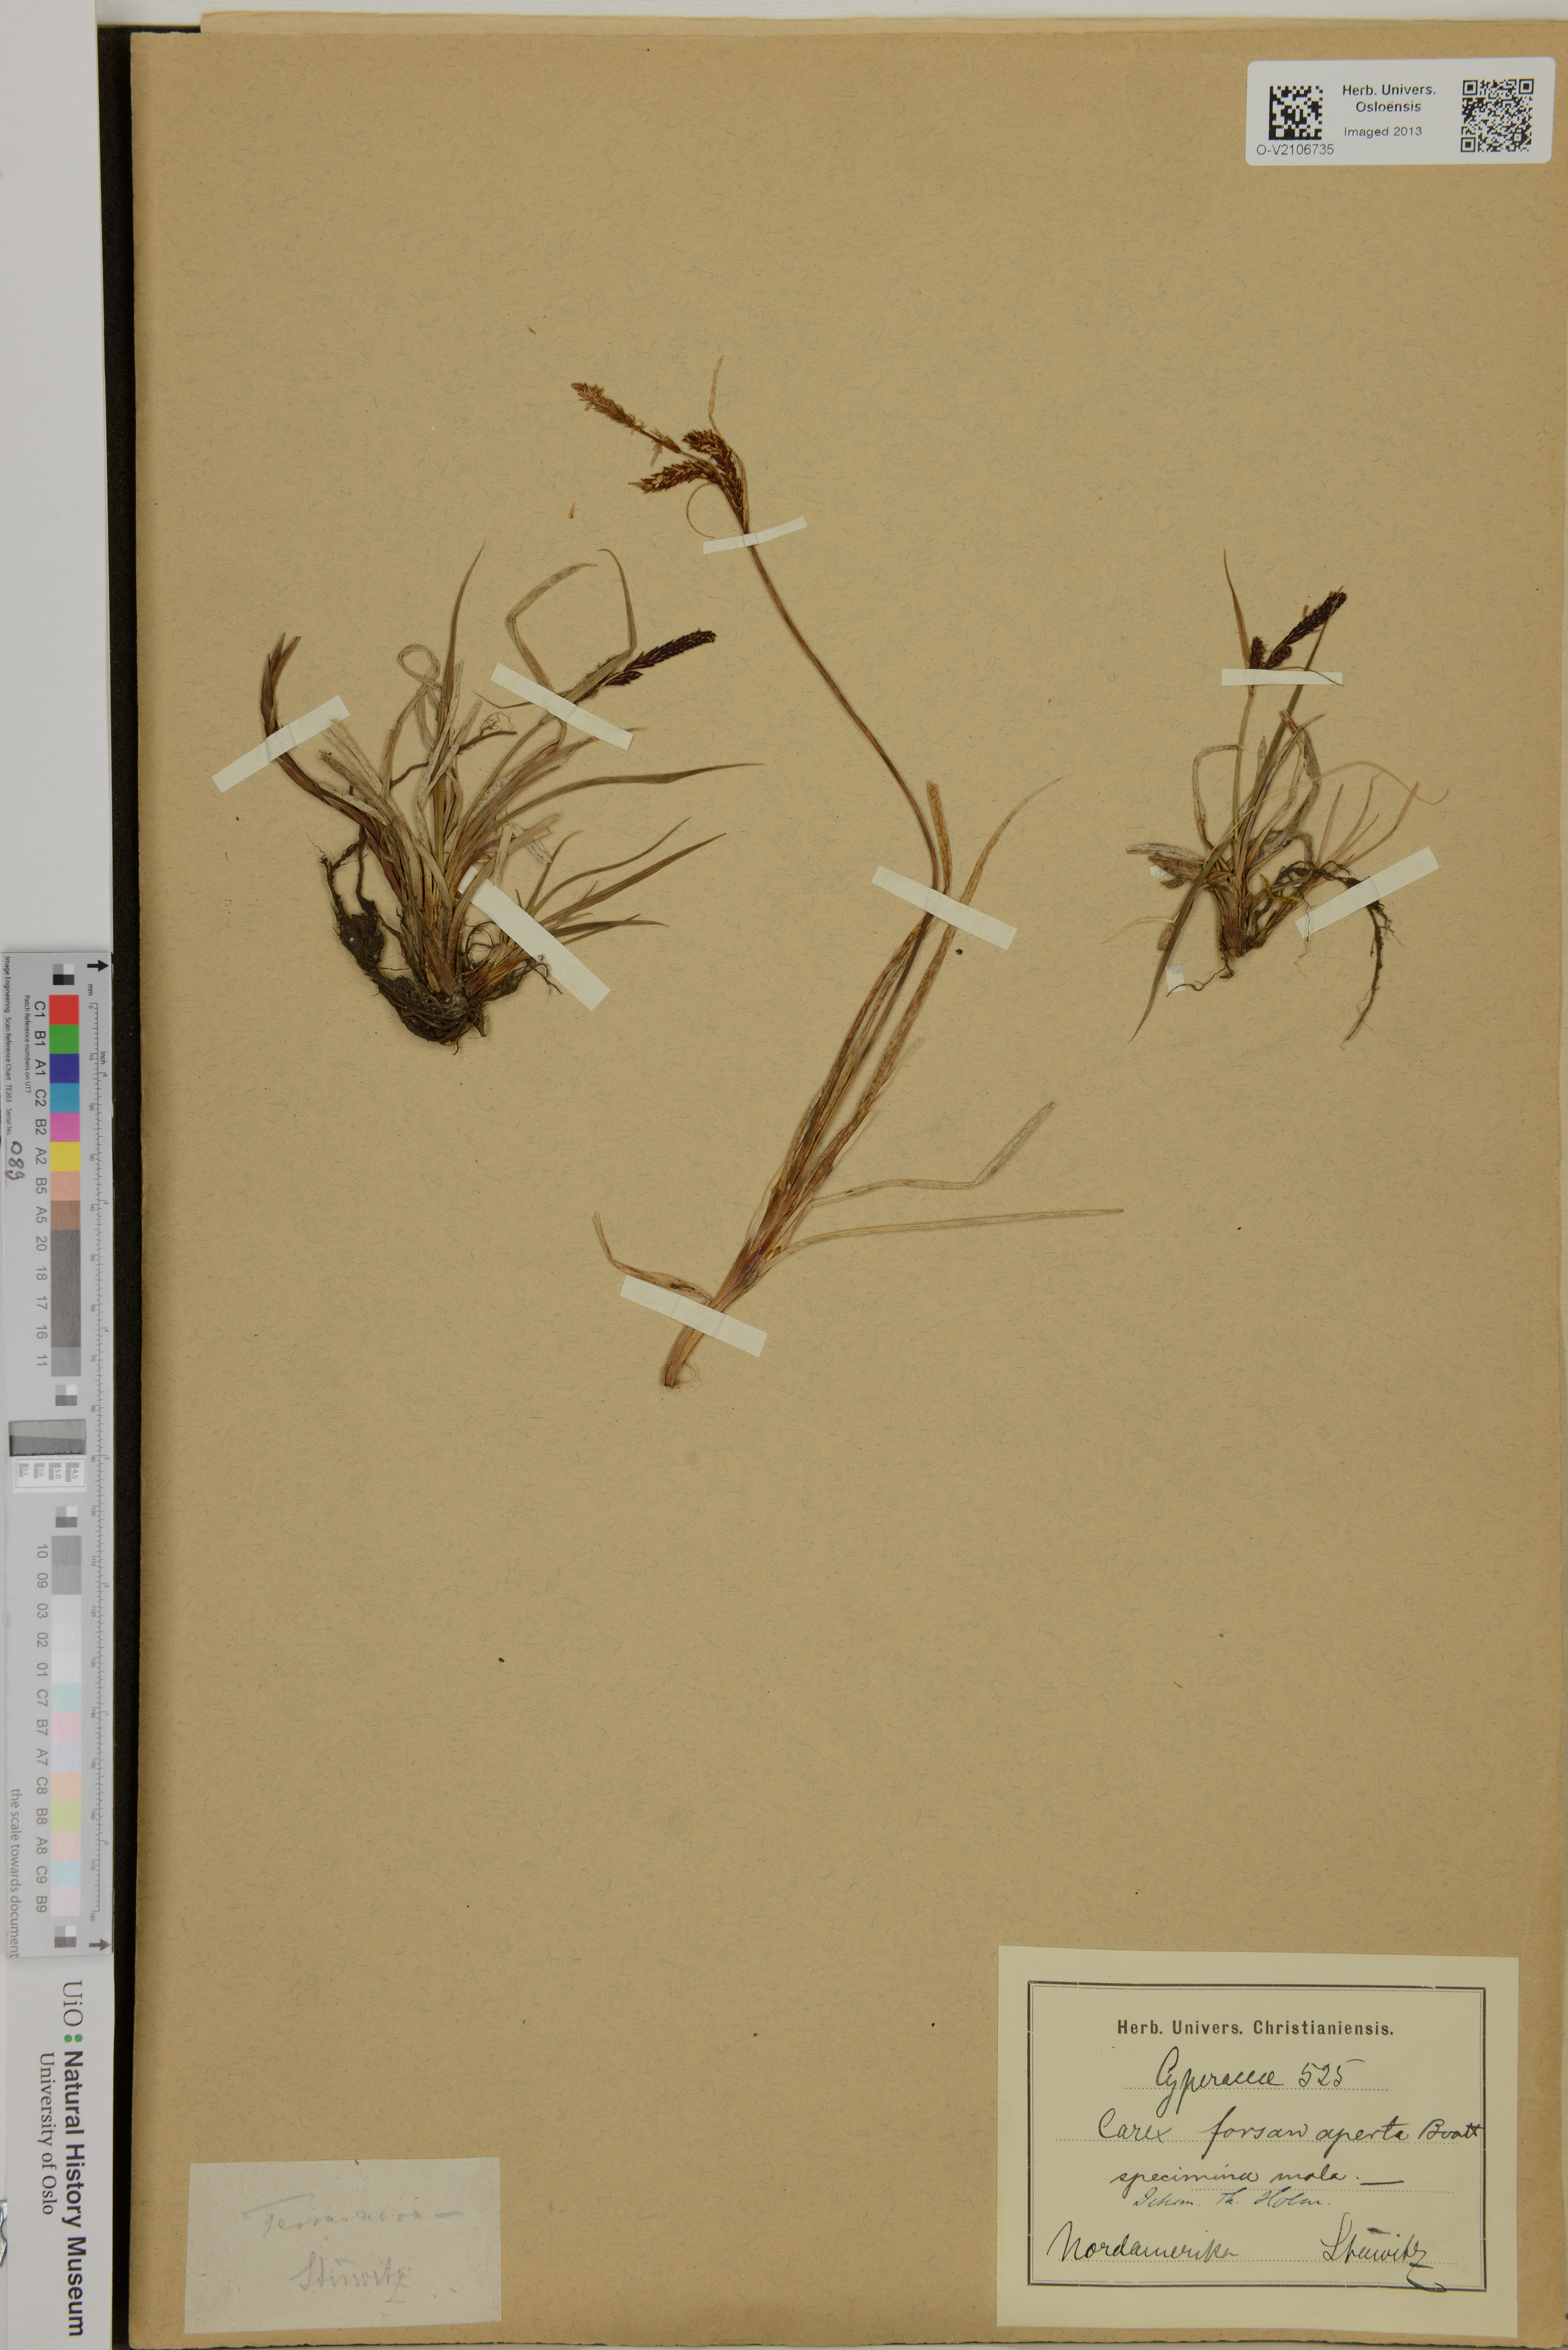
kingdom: Plantae
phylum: Tracheophyta
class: Liliopsida
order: Poales
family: Cyperaceae
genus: Carex
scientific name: Carex aperta
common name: Columbia sedge
